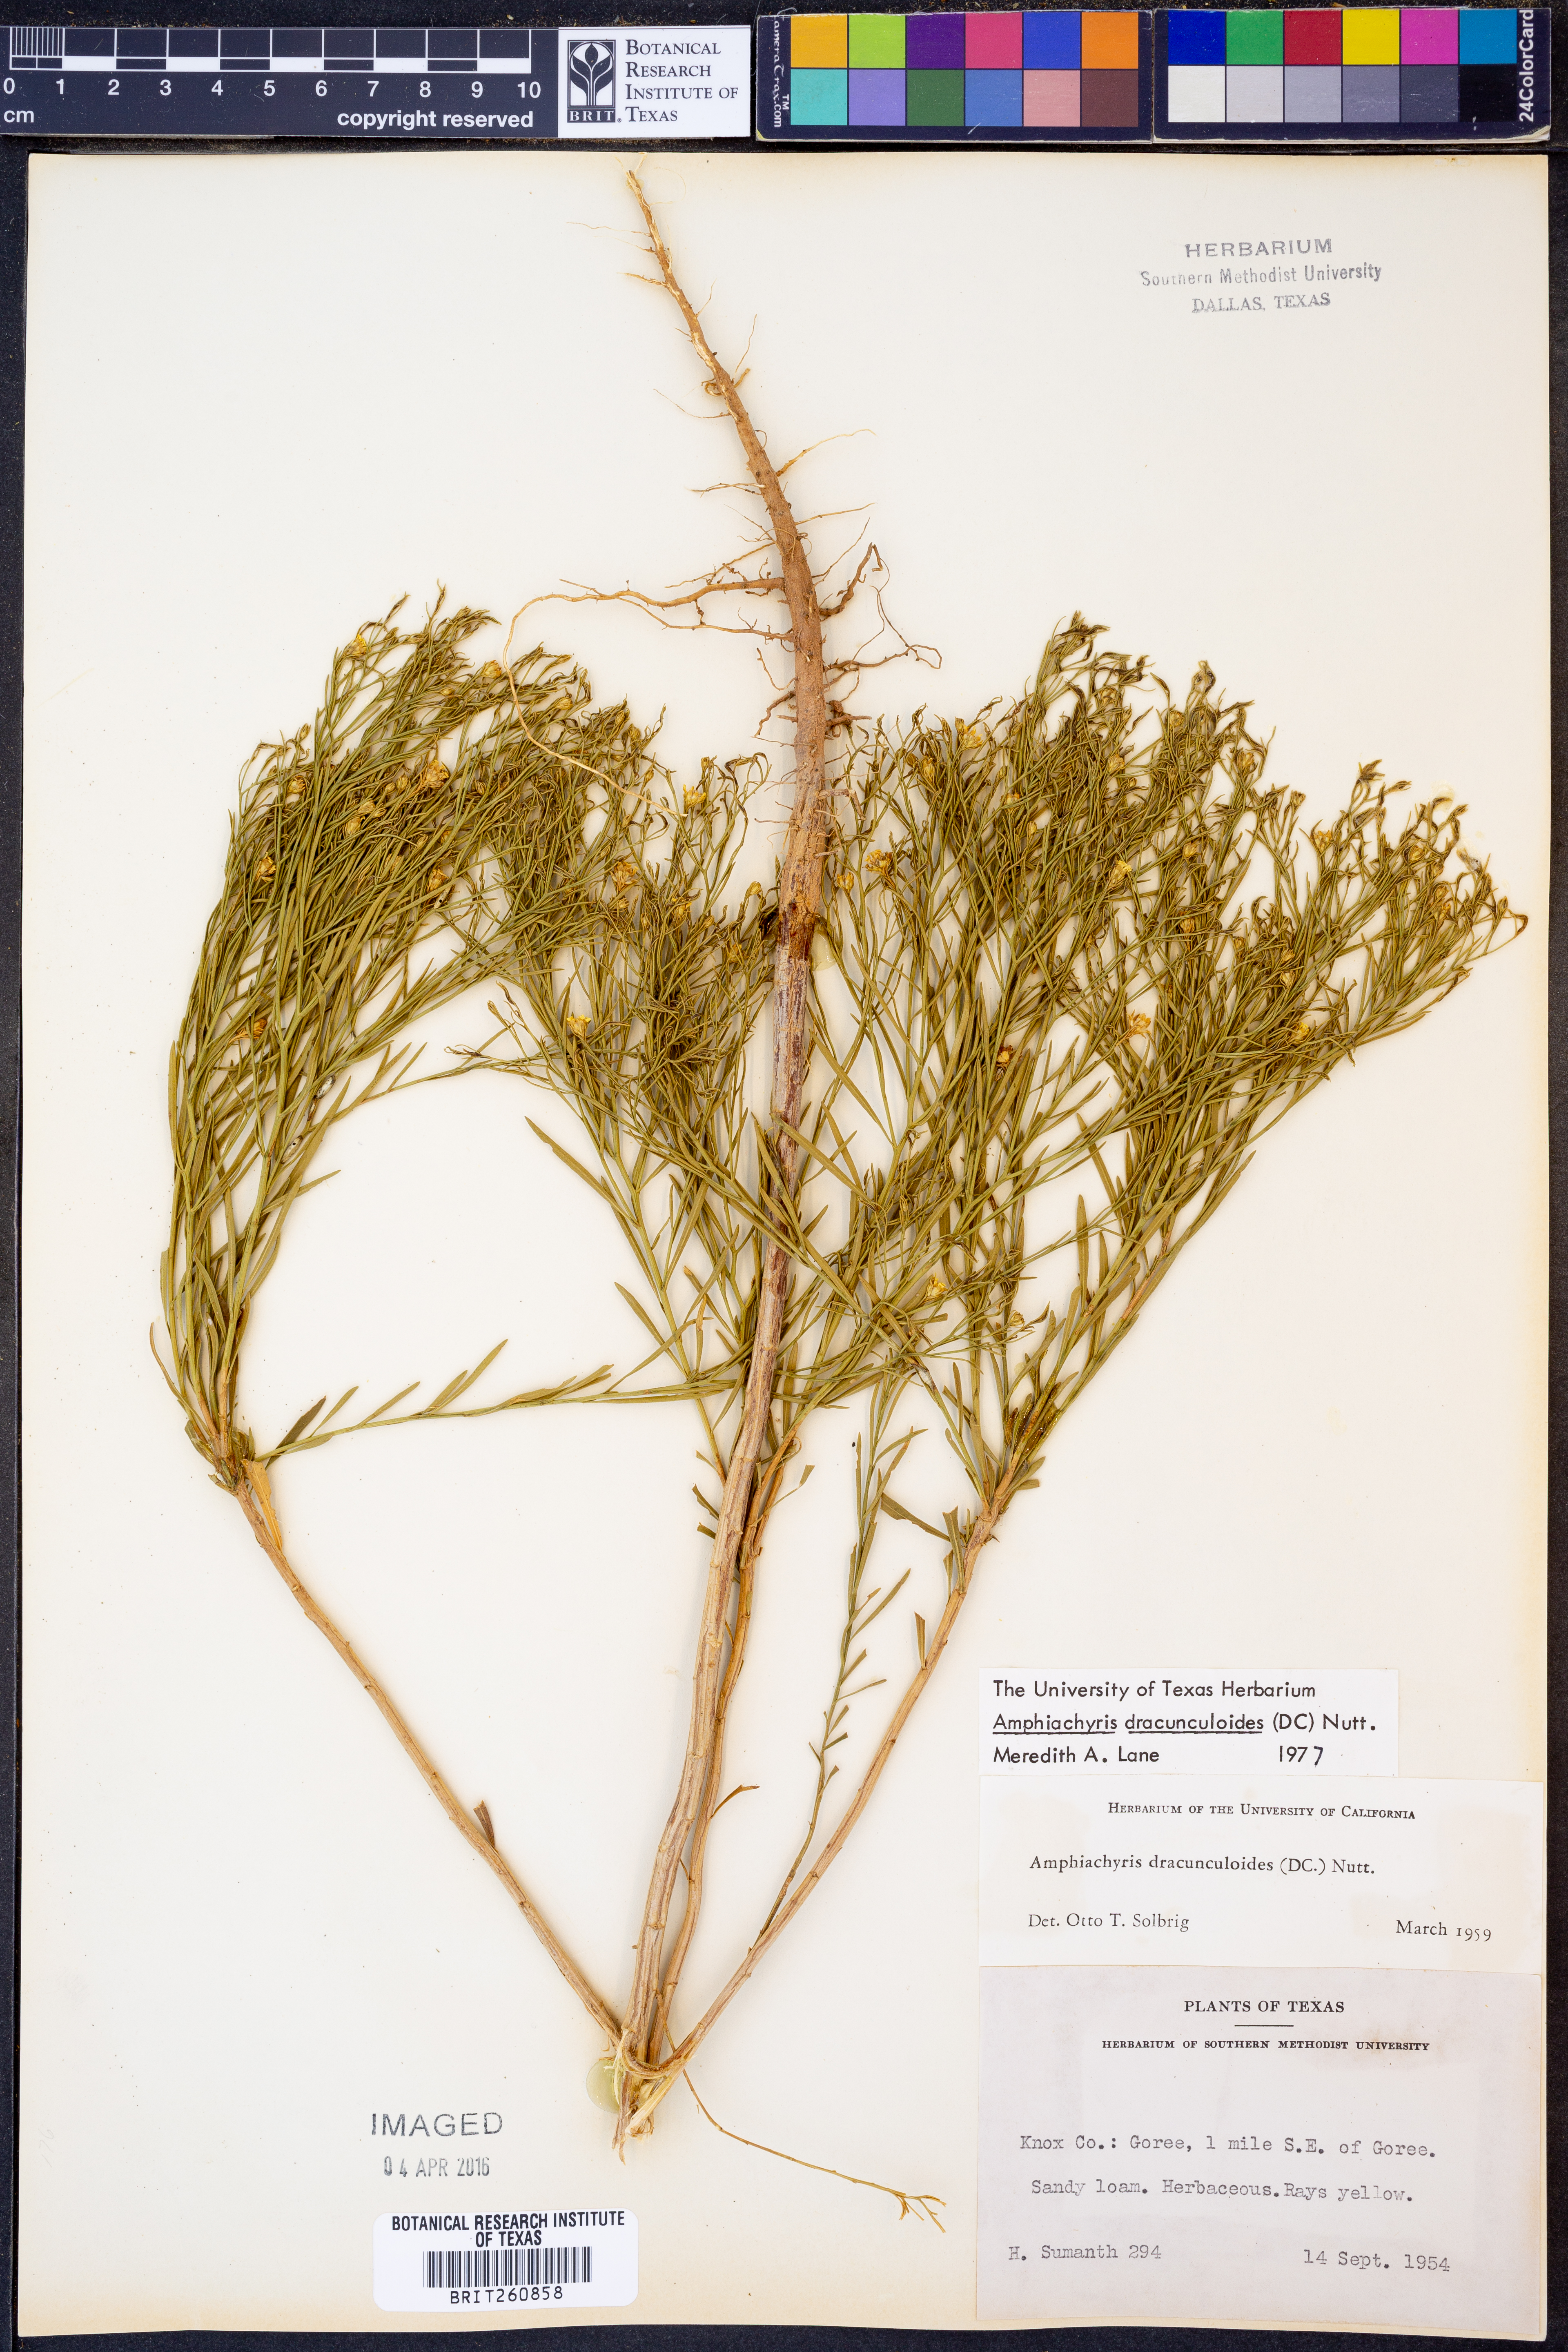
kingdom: Plantae
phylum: Tracheophyta
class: Magnoliopsida
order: Asterales
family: Asteraceae
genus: Amphiachyris
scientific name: Amphiachyris dracunculoides
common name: Broomweed
